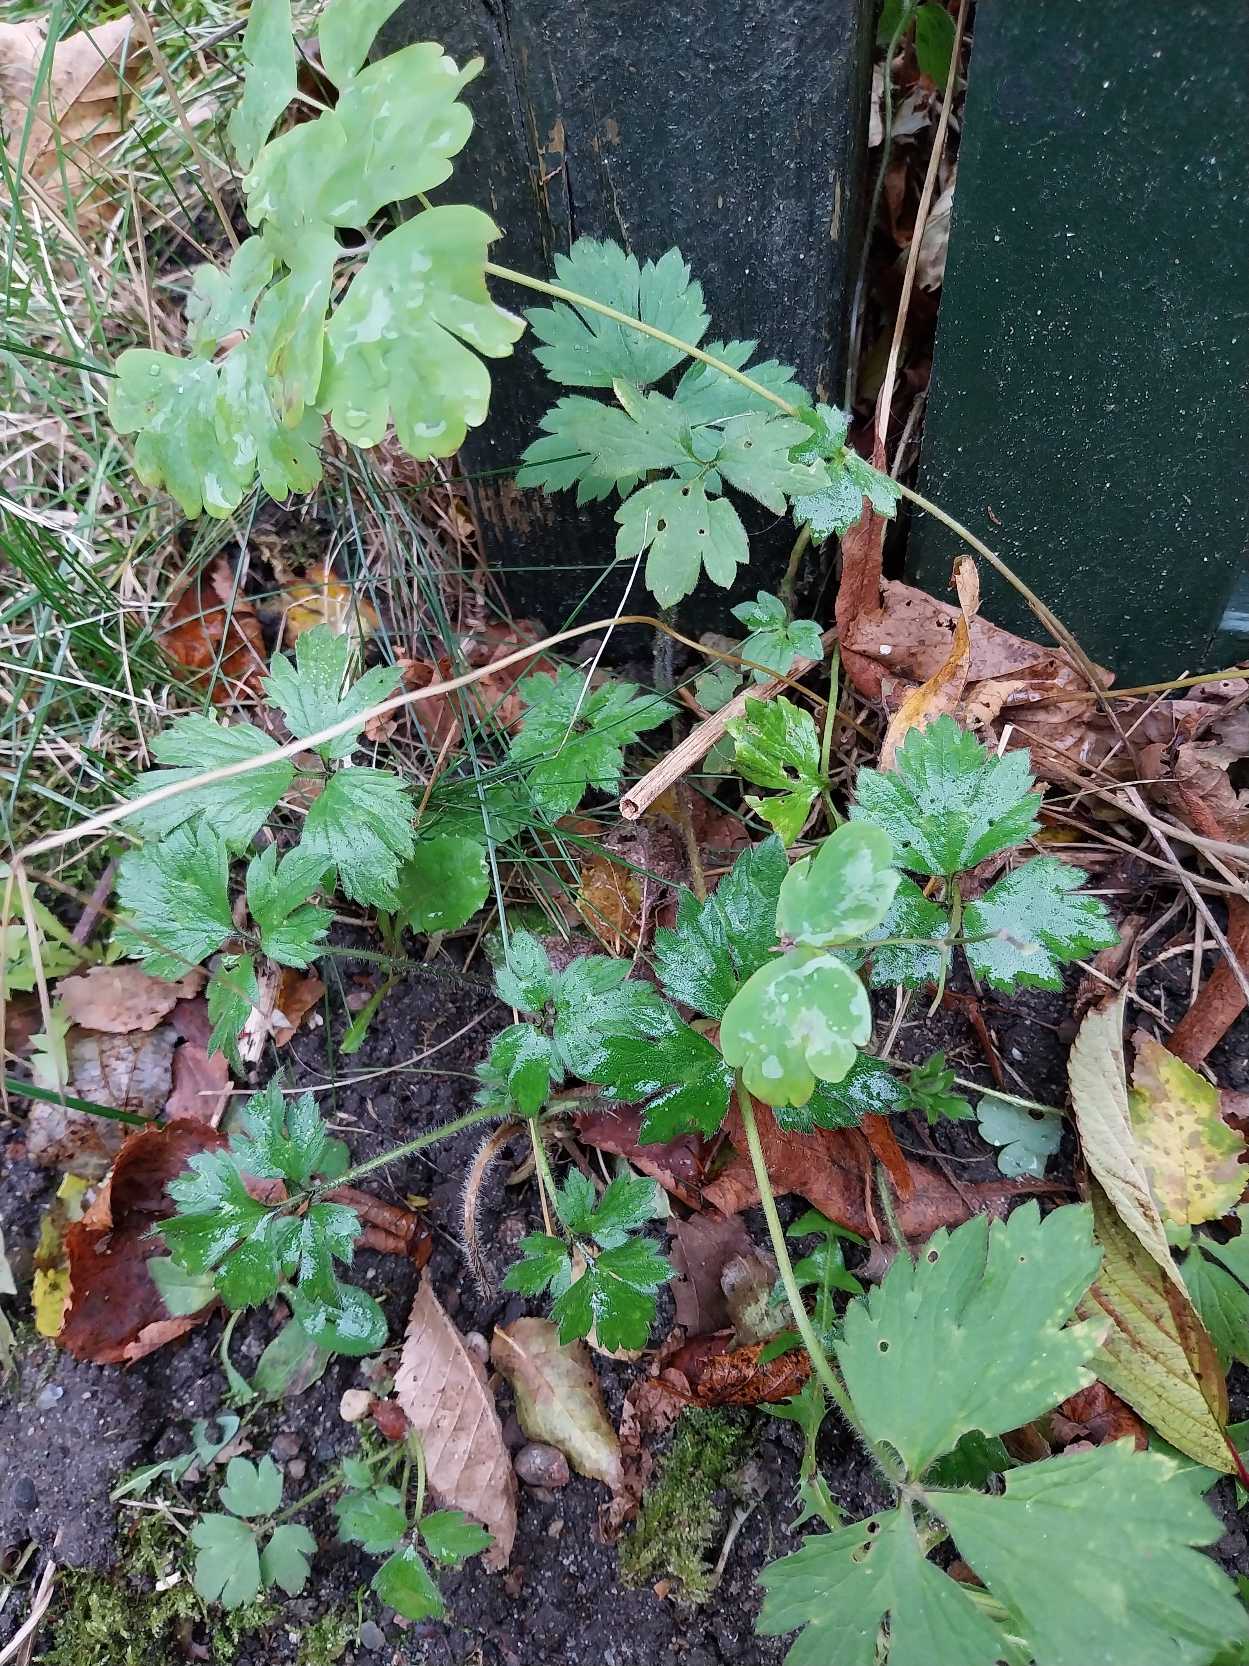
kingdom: Plantae
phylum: Tracheophyta
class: Magnoliopsida
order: Ranunculales
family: Ranunculaceae
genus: Ranunculus
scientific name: Ranunculus repens
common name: Lav ranunkel
